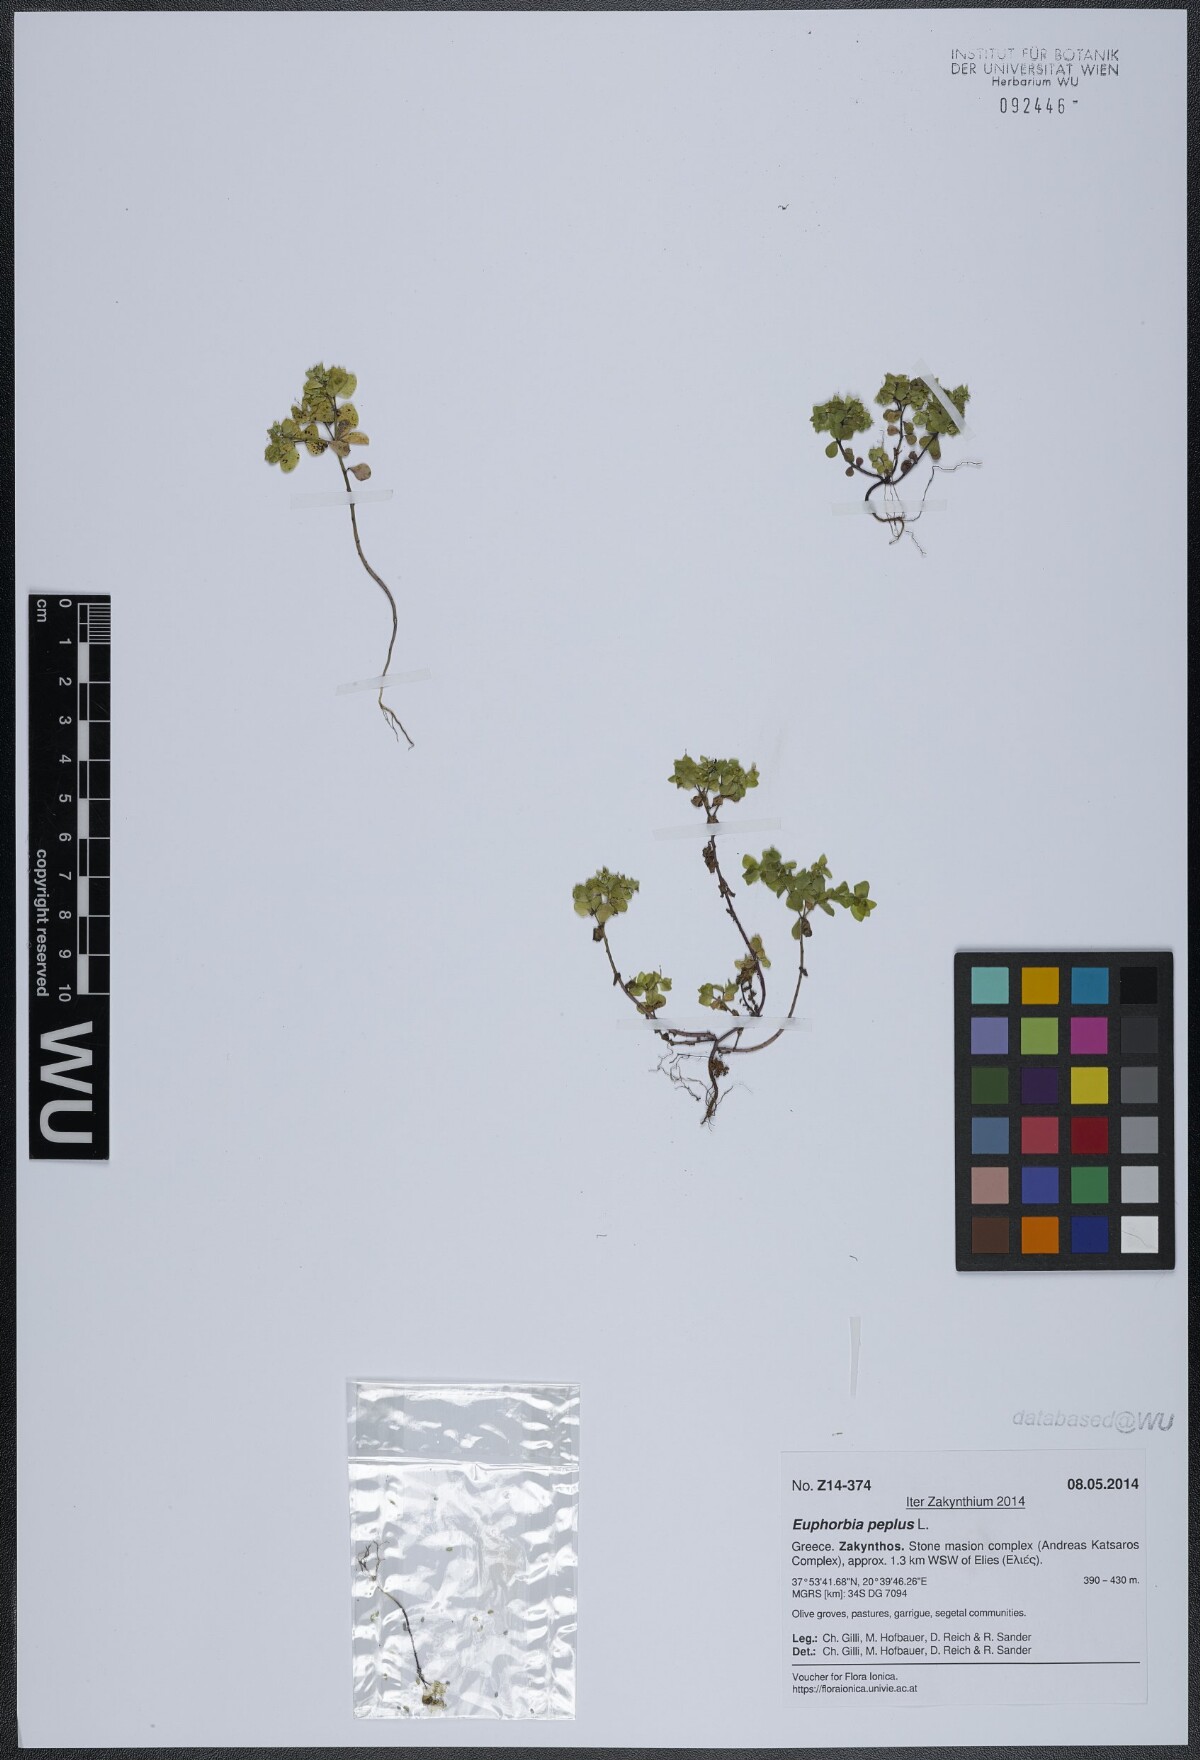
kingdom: Plantae
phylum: Tracheophyta
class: Magnoliopsida
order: Malpighiales
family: Euphorbiaceae
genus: Euphorbia
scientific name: Euphorbia peplus
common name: Petty spurge
